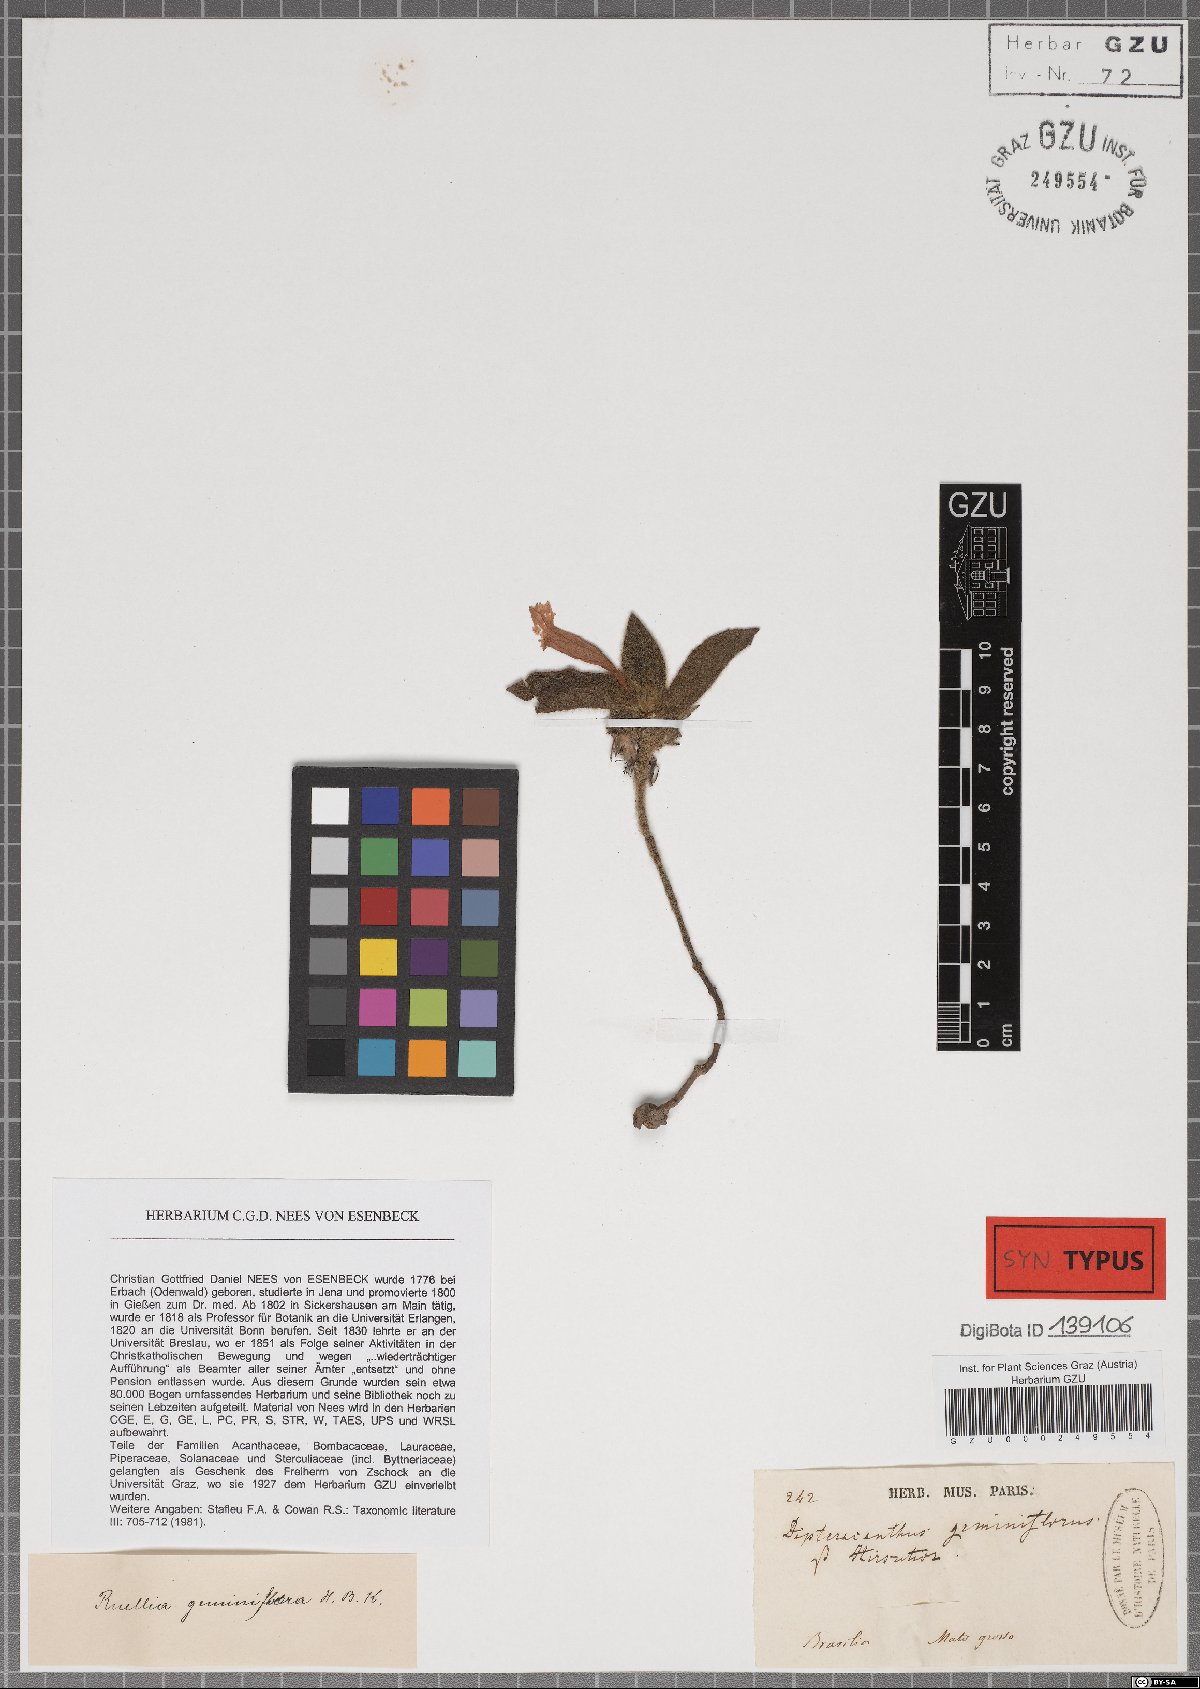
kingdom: Plantae
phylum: Tracheophyta
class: Magnoliopsida
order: Lamiales
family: Acanthaceae
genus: Ruellia
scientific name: Ruellia geminiflora
